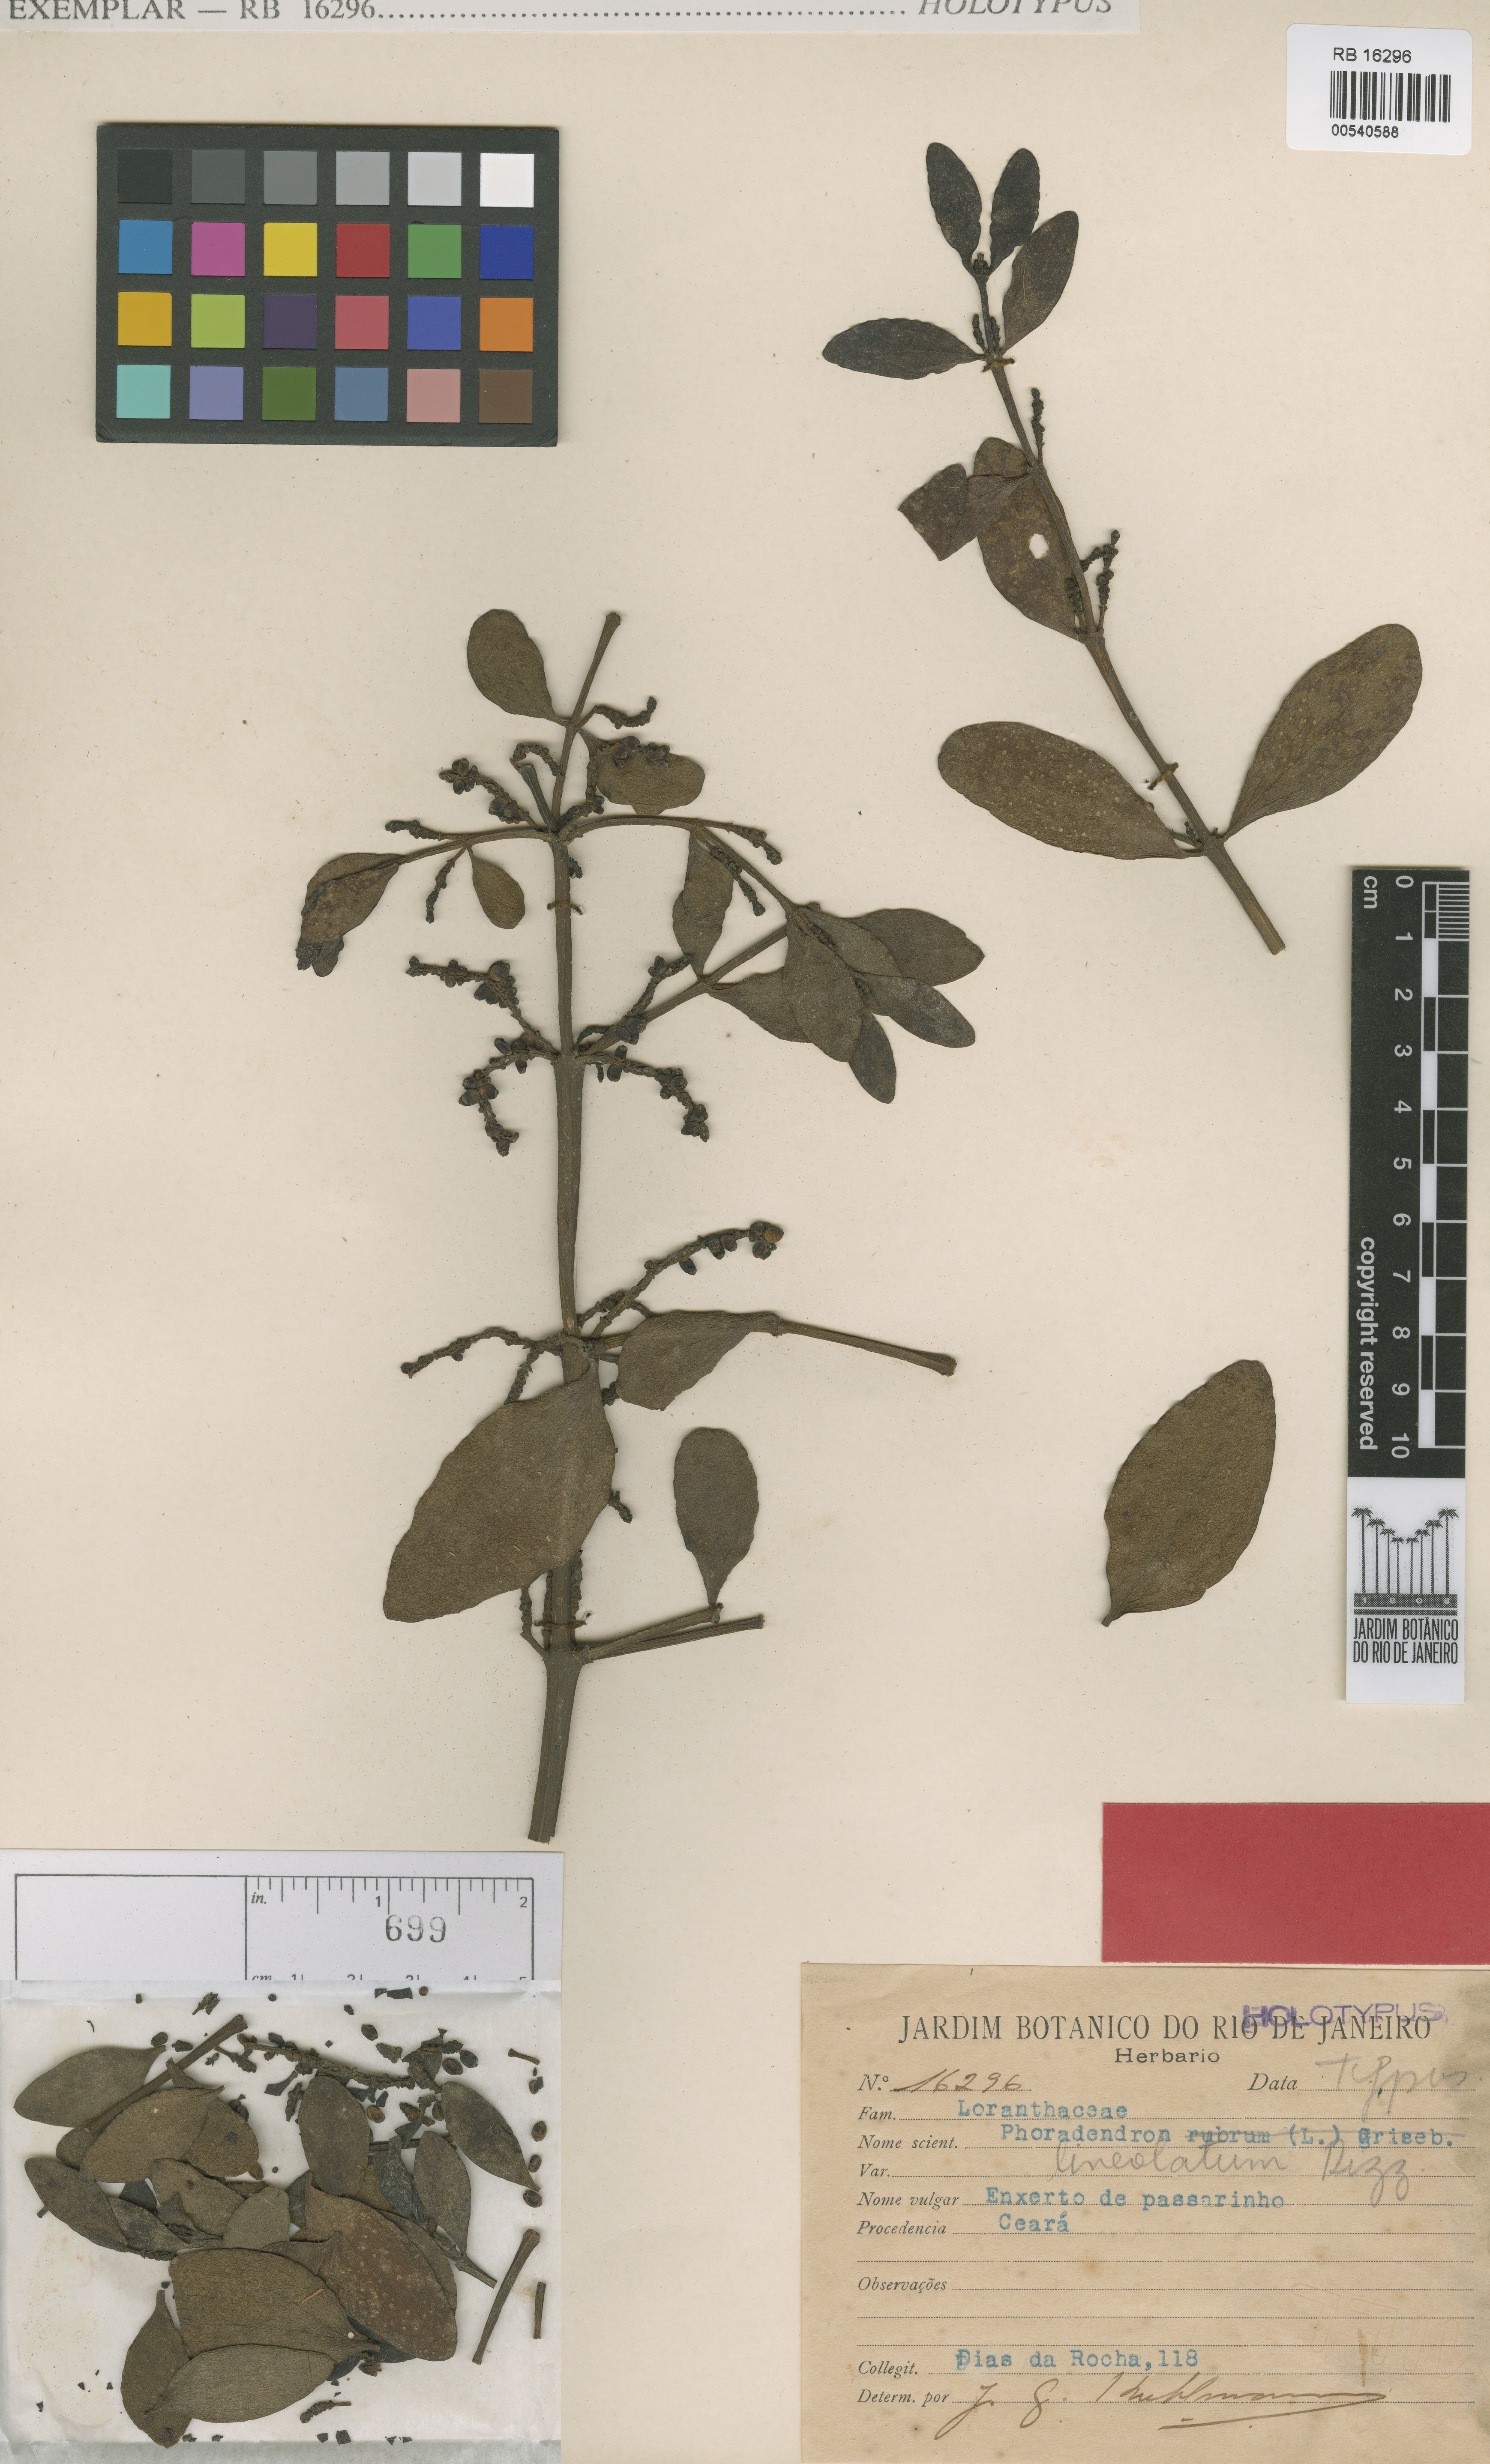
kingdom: Plantae
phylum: Tracheophyta
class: Magnoliopsida
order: Santalales
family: Viscaceae
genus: Phoradendron
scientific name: Phoradendron affine
